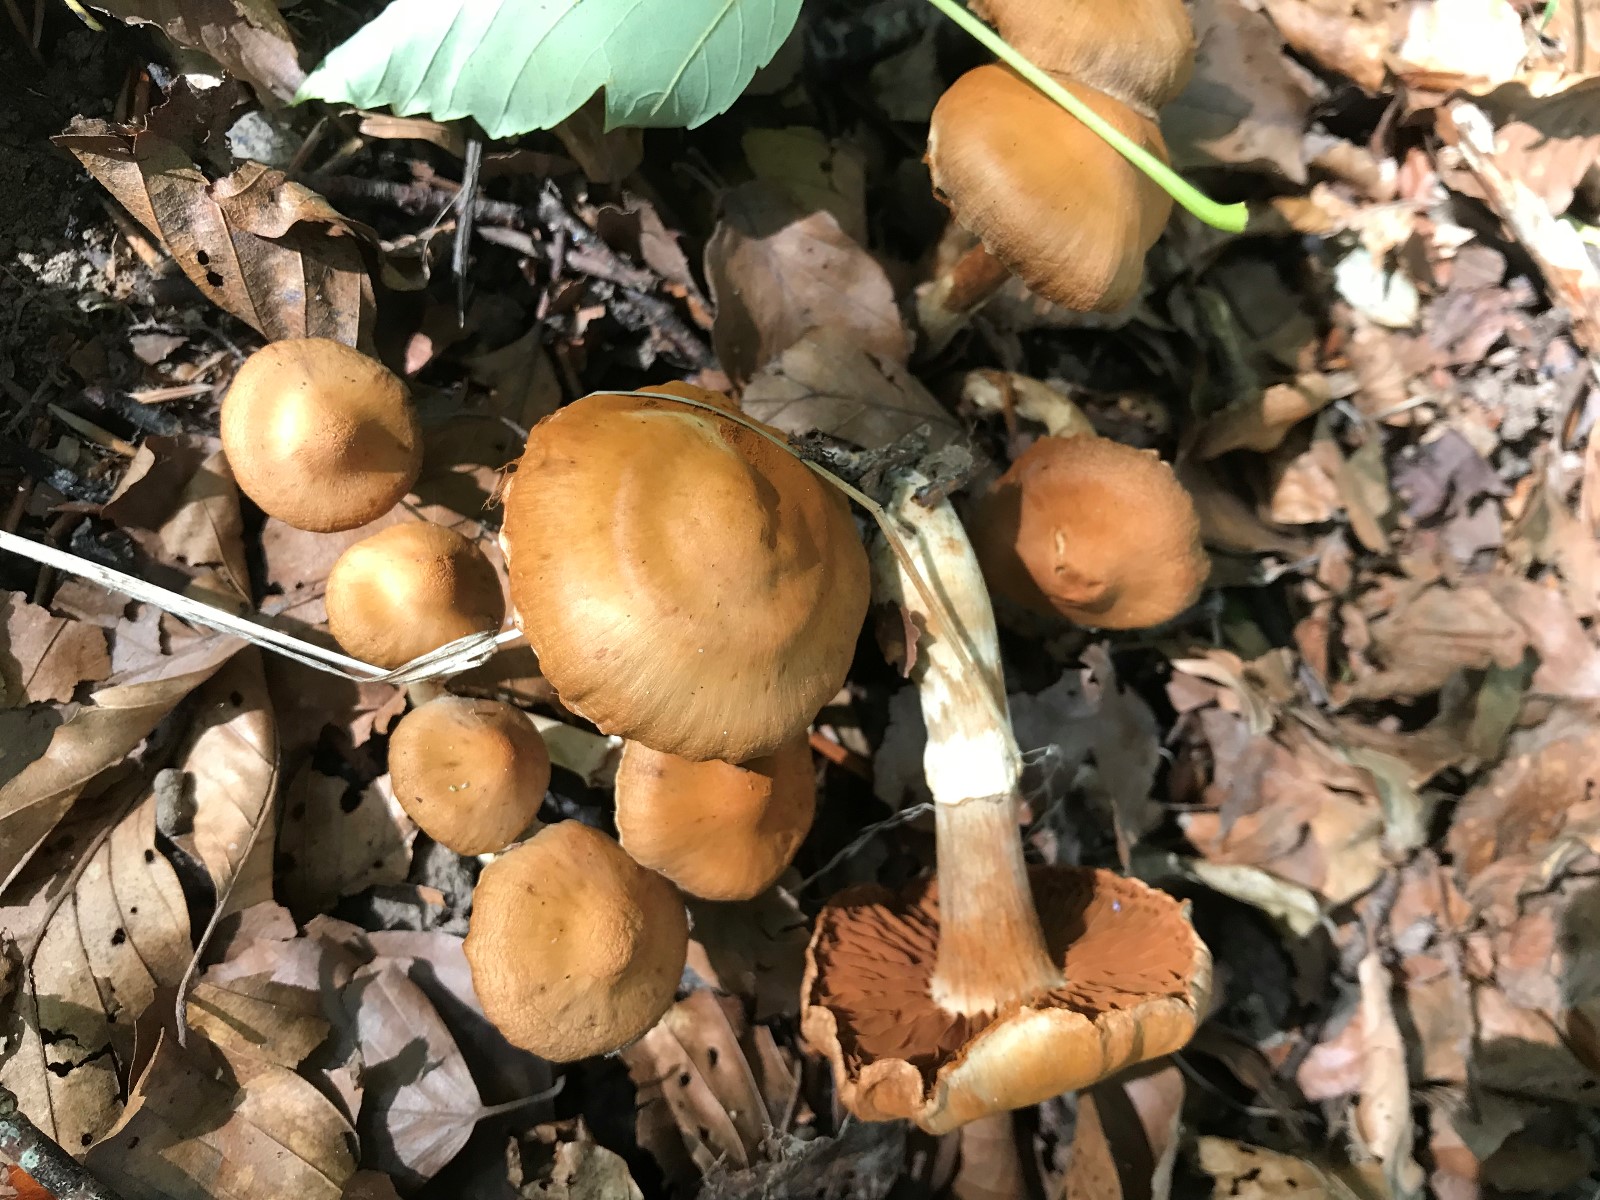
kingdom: Fungi
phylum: Basidiomycota
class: Agaricomycetes
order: Agaricales
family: Cortinariaceae
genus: Cortinarius
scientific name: Cortinarius
